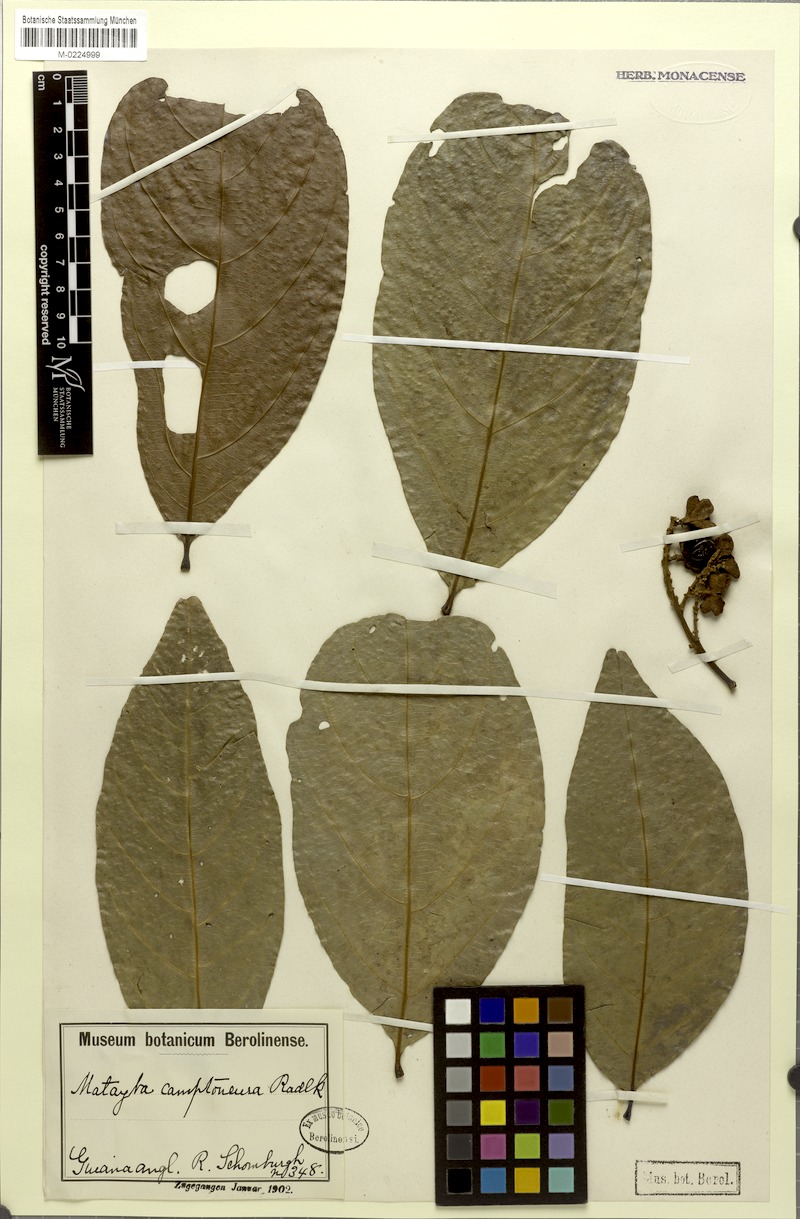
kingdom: Plantae
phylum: Tracheophyta
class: Magnoliopsida
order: Sapindales
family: Sapindaceae
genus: Matayba
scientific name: Matayba camptoneura
